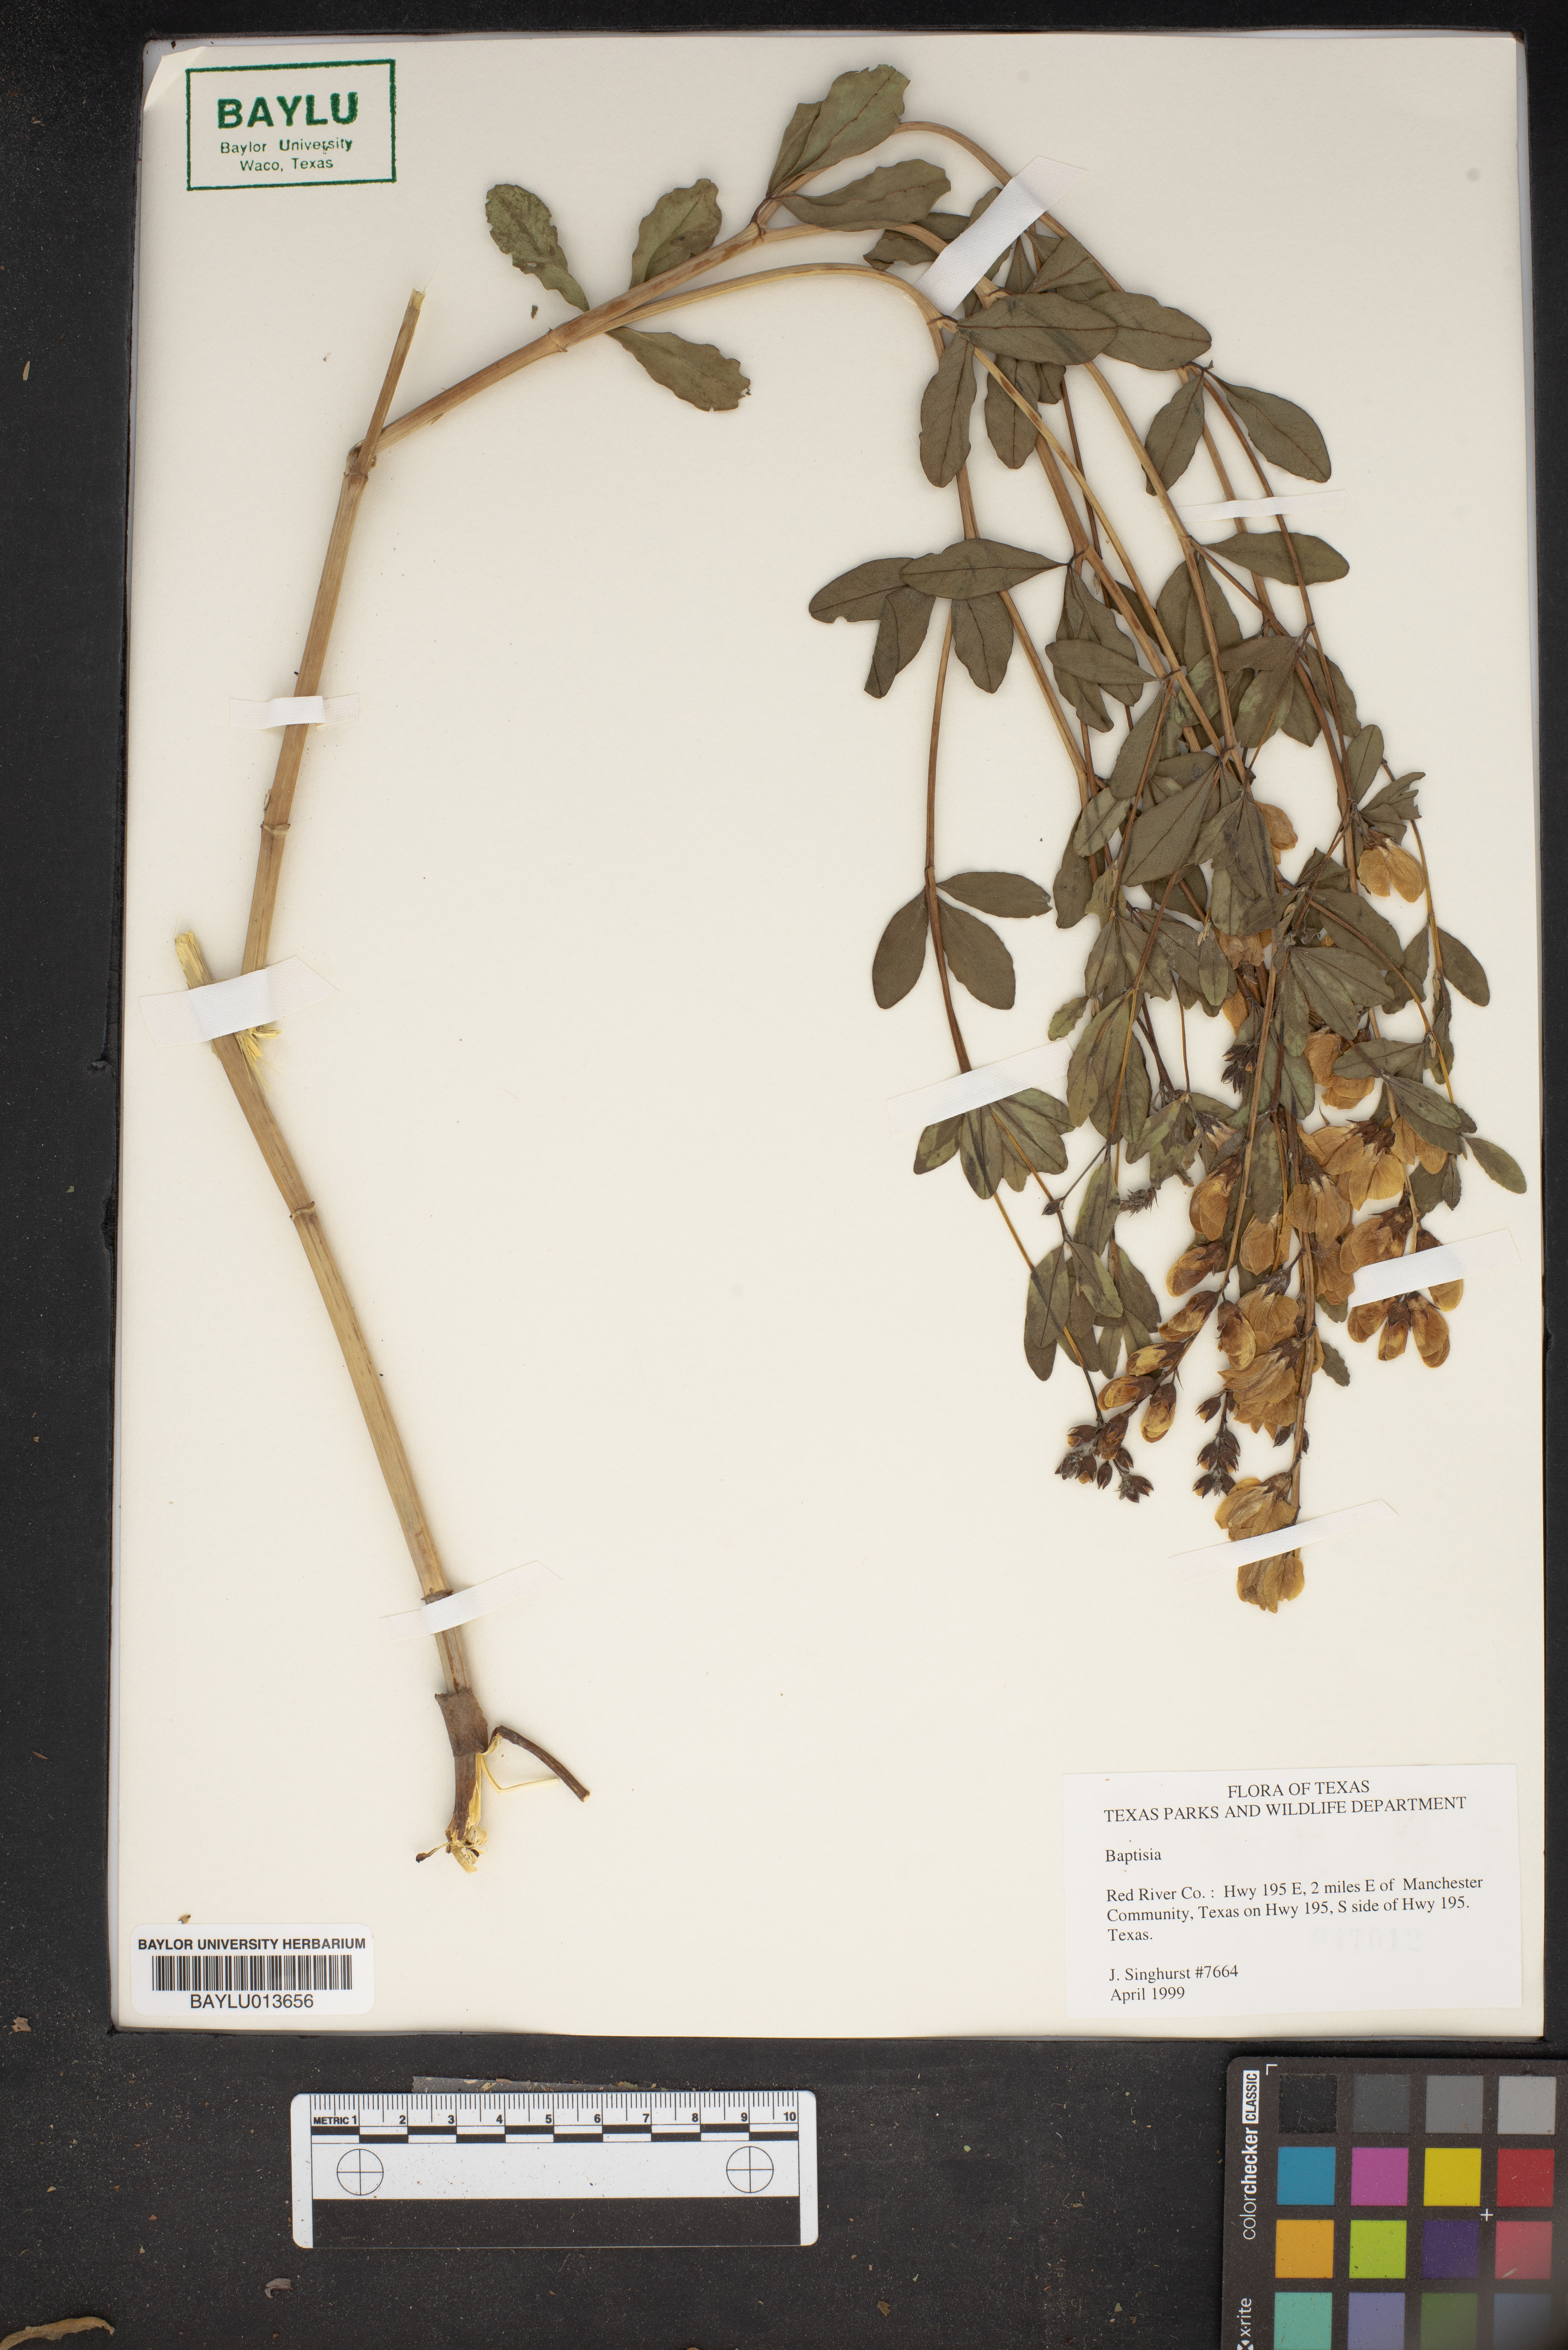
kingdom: Plantae
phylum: Tracheophyta
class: Magnoliopsida
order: Fabales
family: Fabaceae
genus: Baptisia
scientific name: Baptisia
